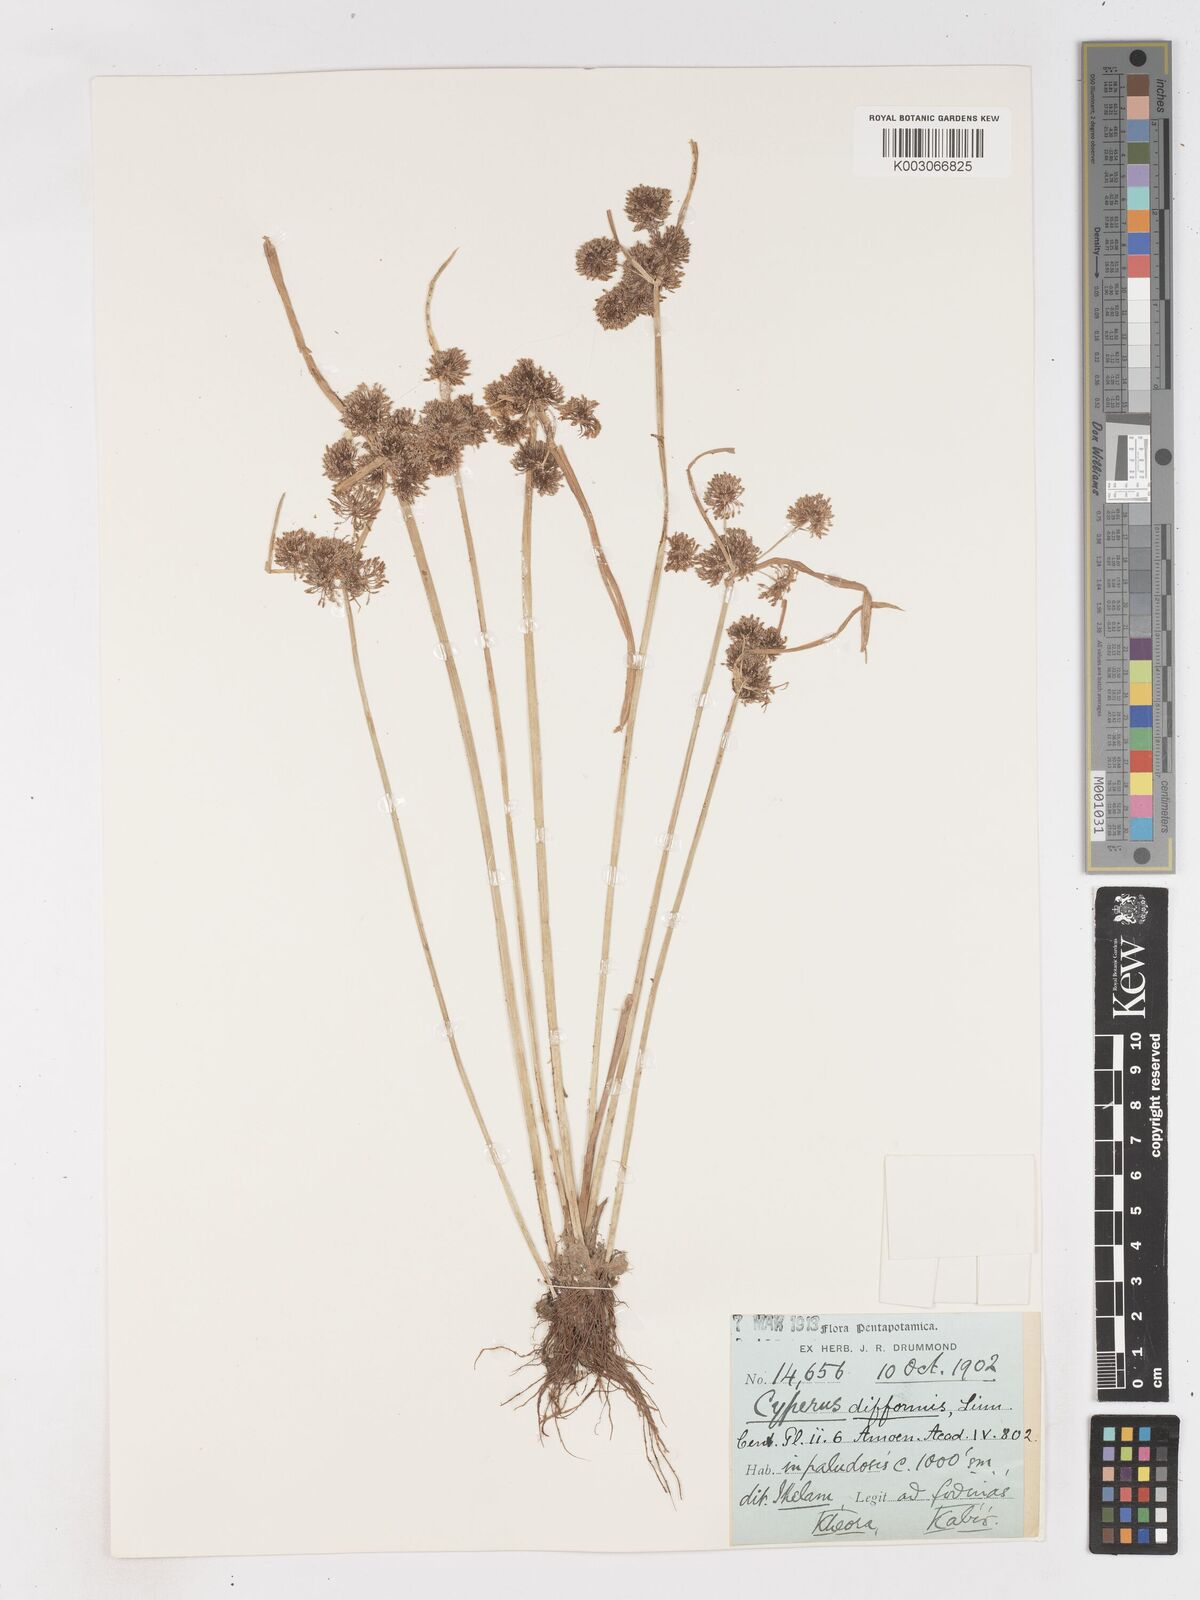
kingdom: Plantae
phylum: Tracheophyta
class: Liliopsida
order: Poales
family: Cyperaceae
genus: Cyperus
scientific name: Cyperus difformis
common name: Variable flatsedge
